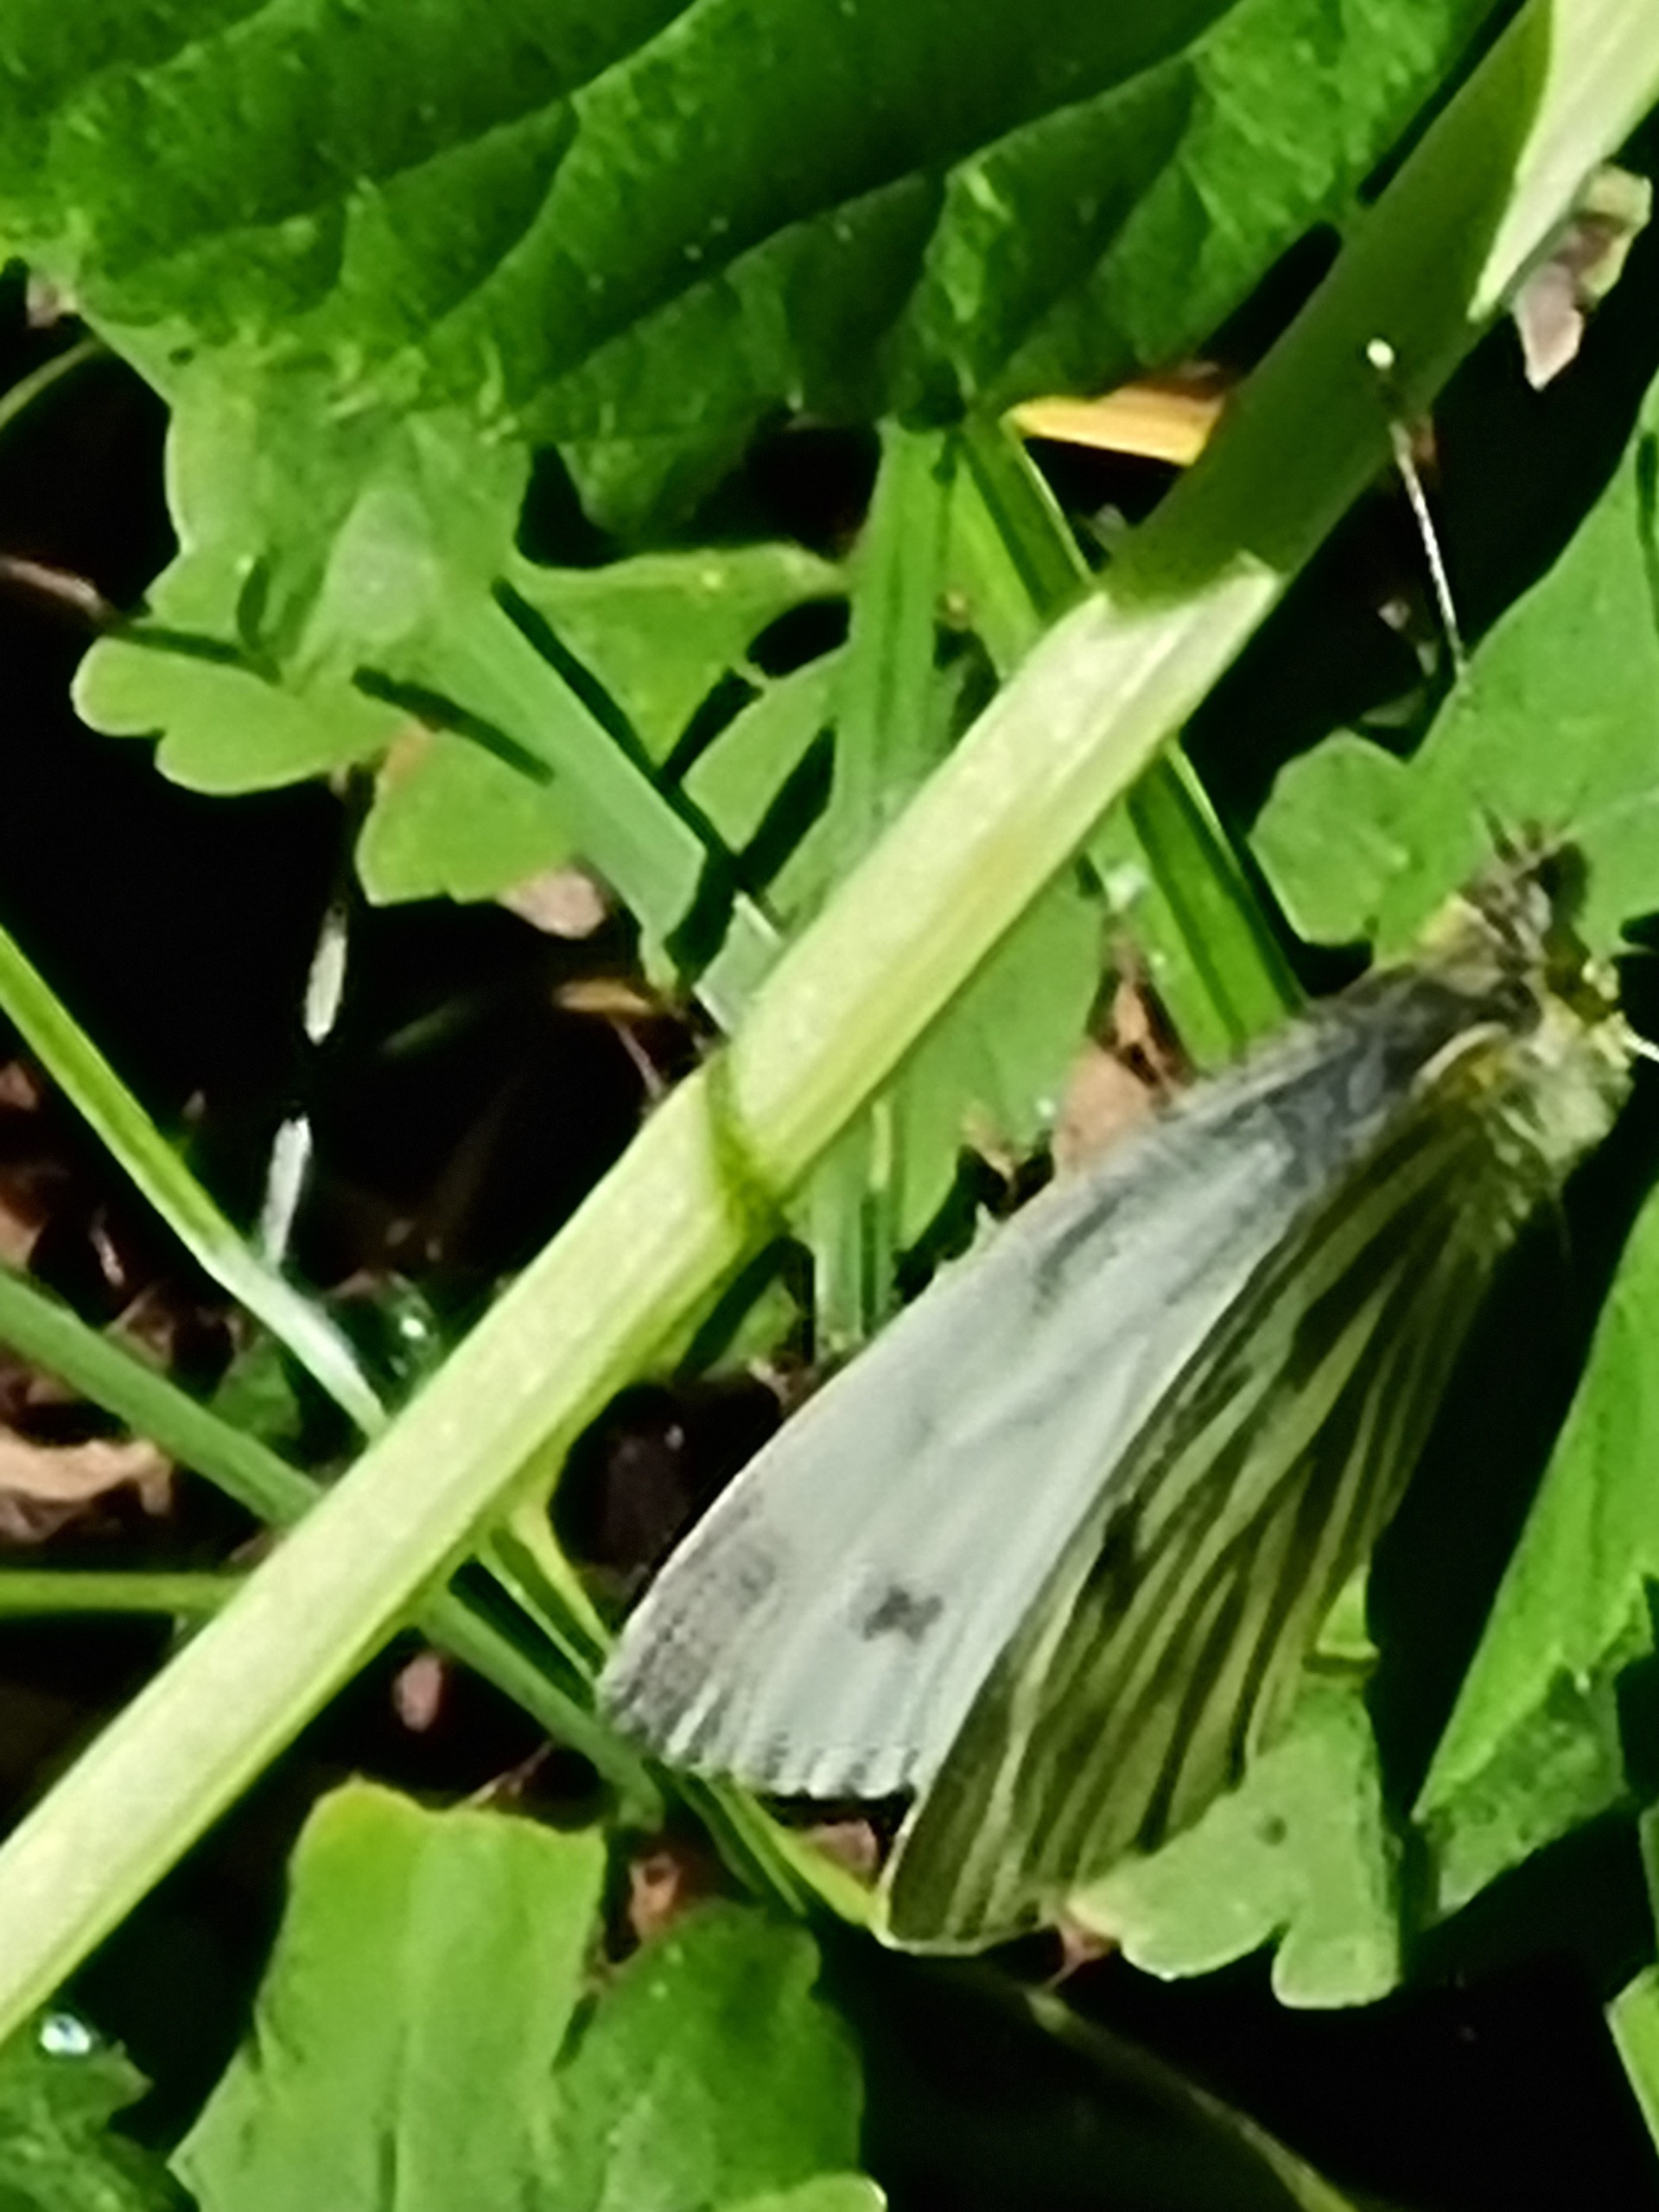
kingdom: Animalia
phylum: Arthropoda
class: Insecta
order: Lepidoptera
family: Pieridae
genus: Pieris
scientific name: Pieris napi
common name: Grønåret kålsommerfugl
